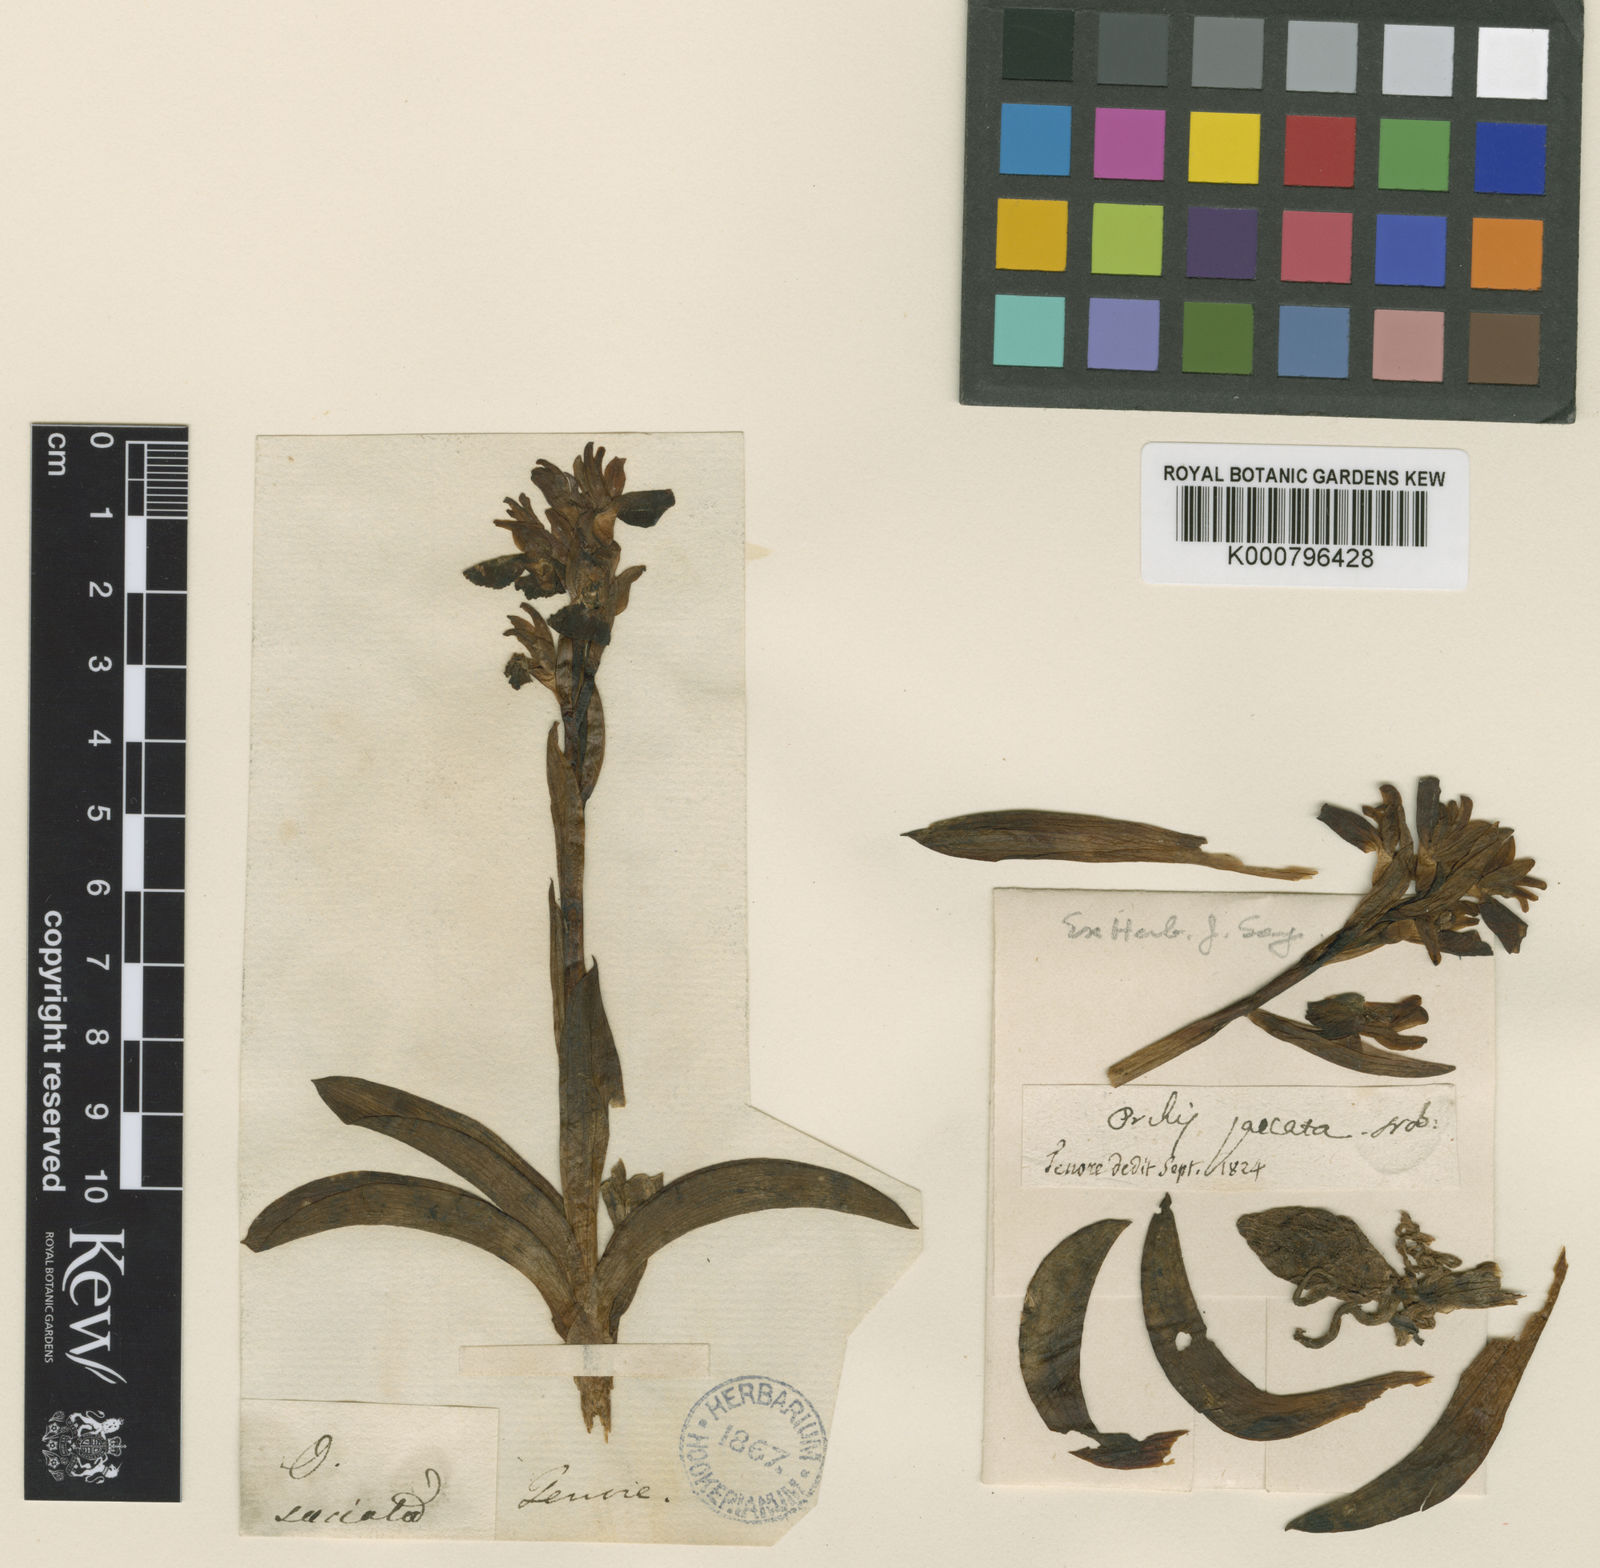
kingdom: Plantae
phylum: Tracheophyta
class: Liliopsida
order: Asparagales
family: Orchidaceae
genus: Anacamptis
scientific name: Anacamptis collina
